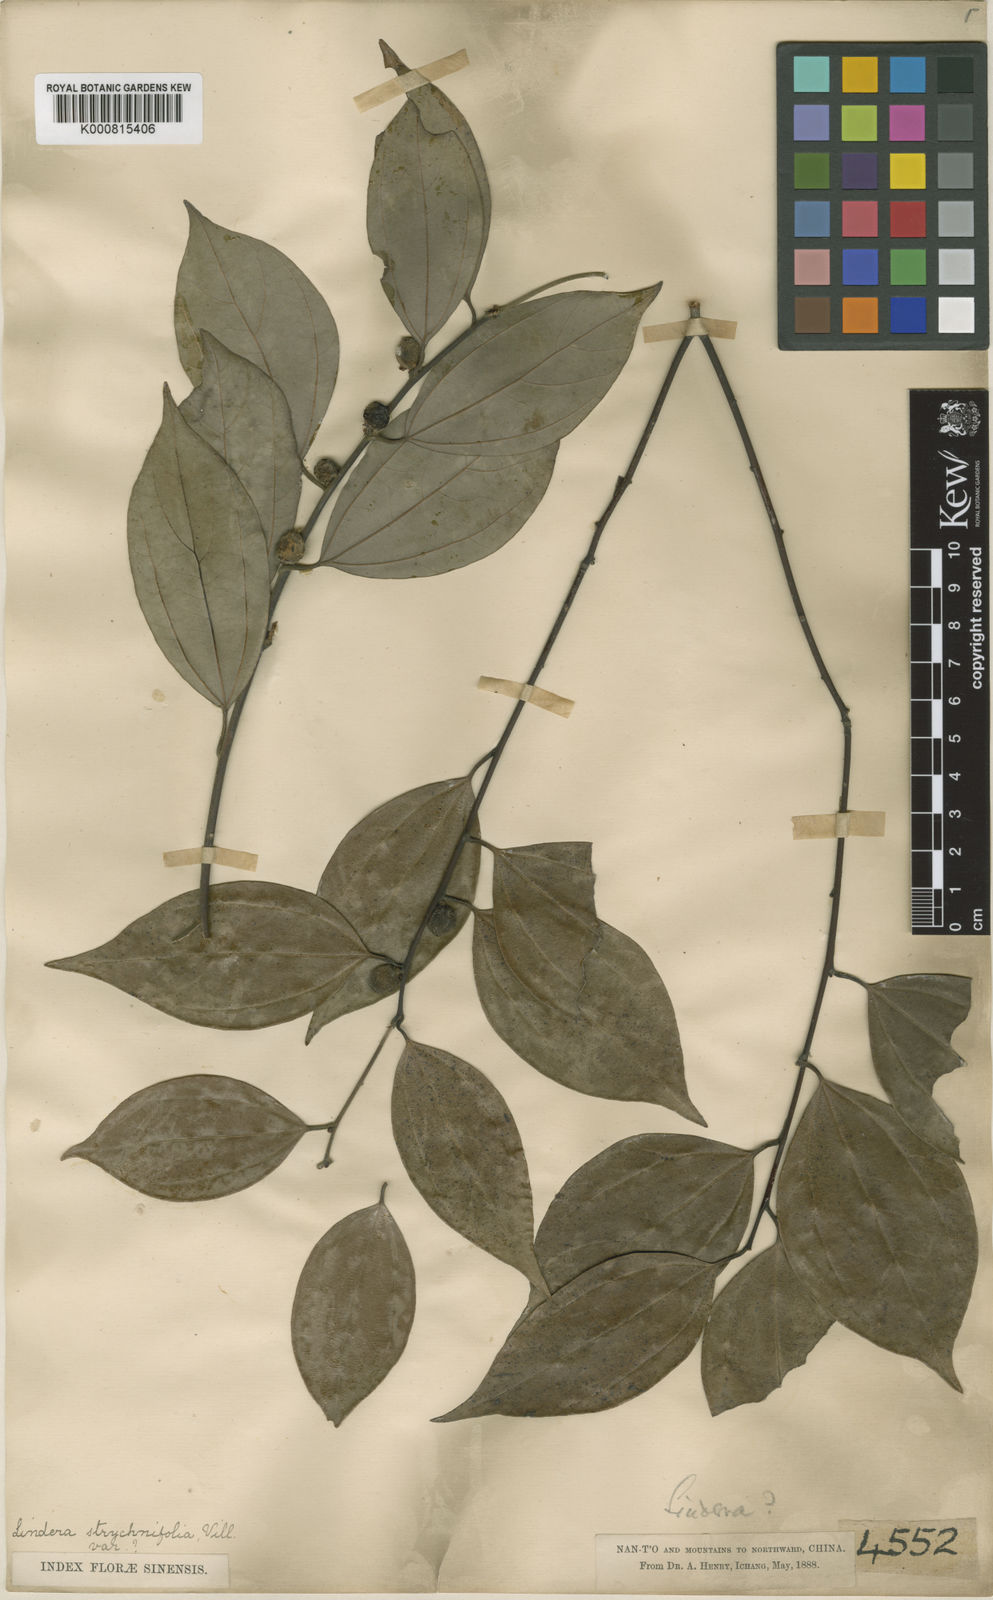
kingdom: Plantae
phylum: Tracheophyta
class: Magnoliopsida
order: Laurales
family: Lauraceae
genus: Lindera
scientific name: Lindera aggregata
